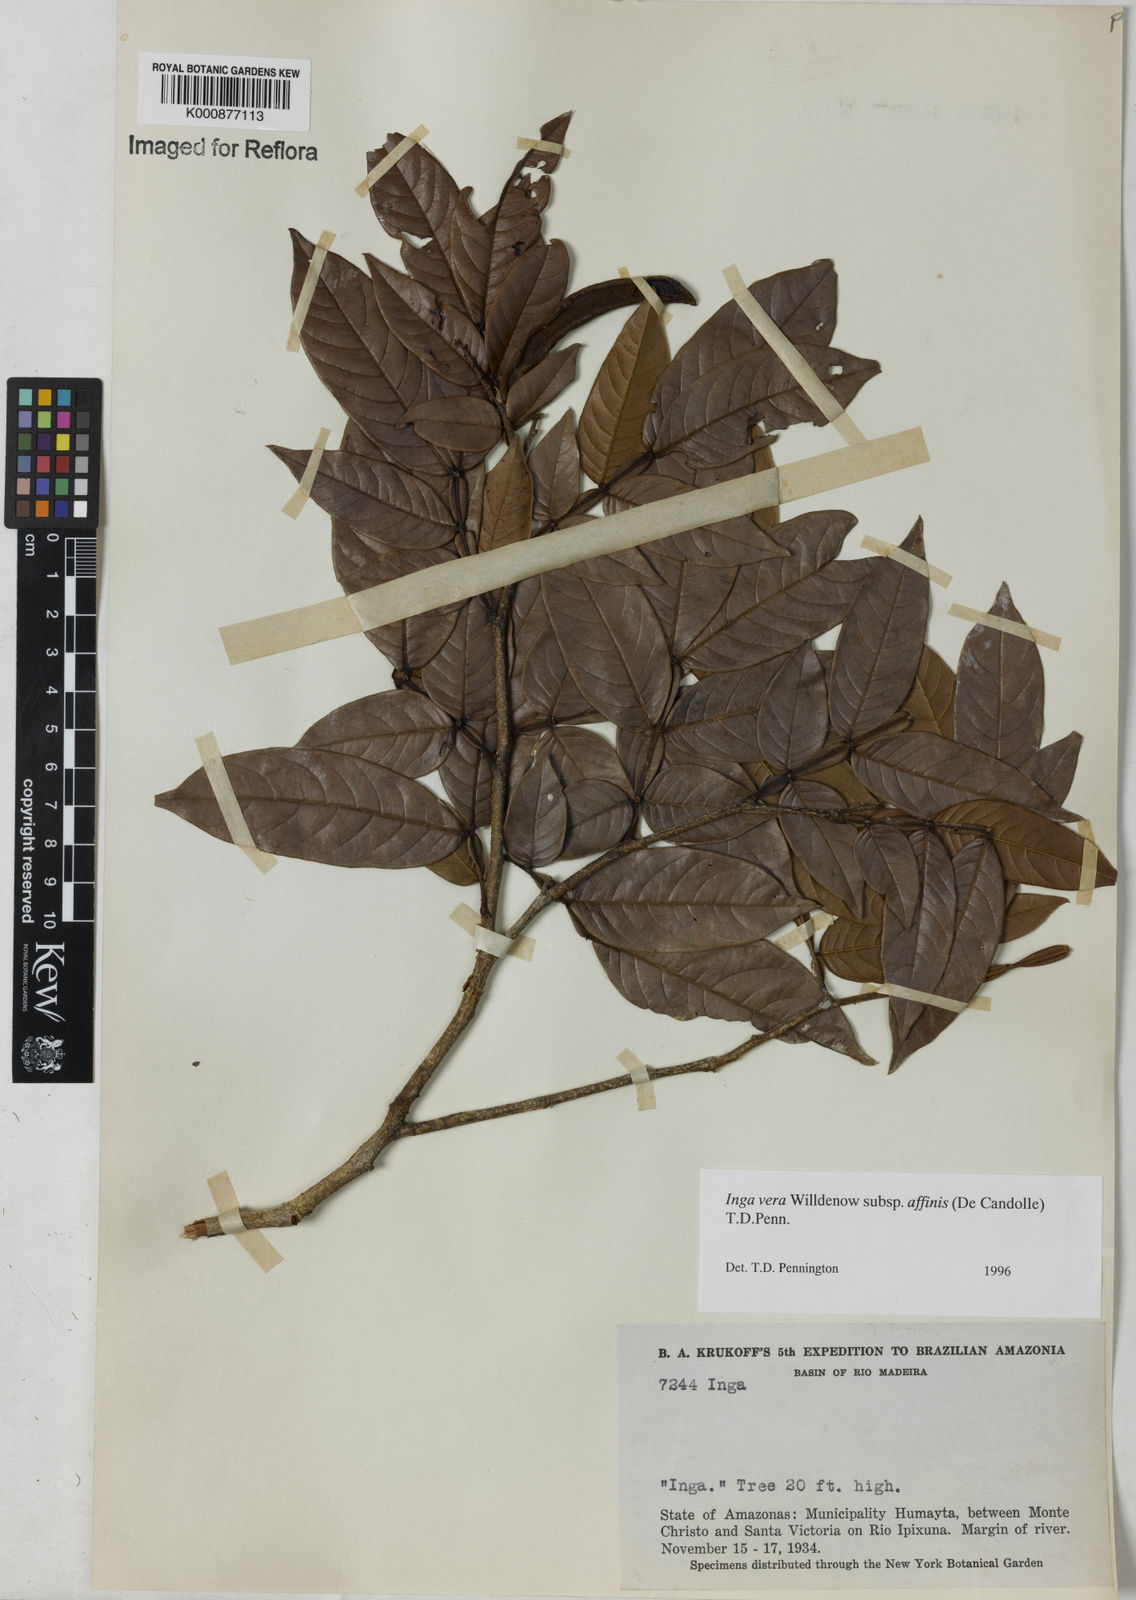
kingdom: Plantae
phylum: Tracheophyta
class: Magnoliopsida
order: Fabales
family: Fabaceae
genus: Inga
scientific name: Inga affinis
